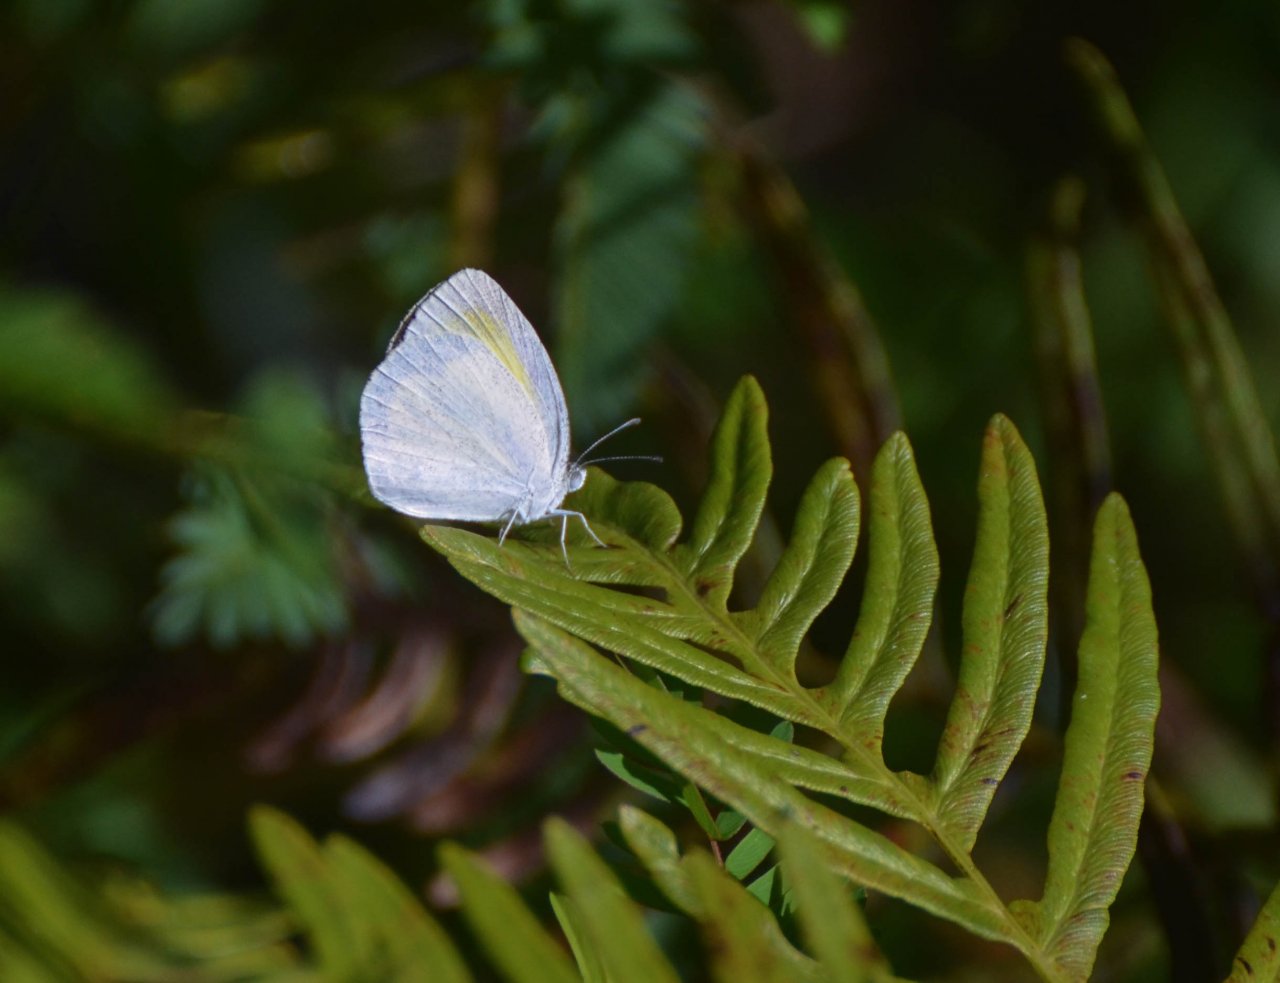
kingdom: Animalia
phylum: Arthropoda
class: Insecta
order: Lepidoptera
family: Pieridae
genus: Eurema
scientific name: Eurema daira
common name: Barred Yellow
